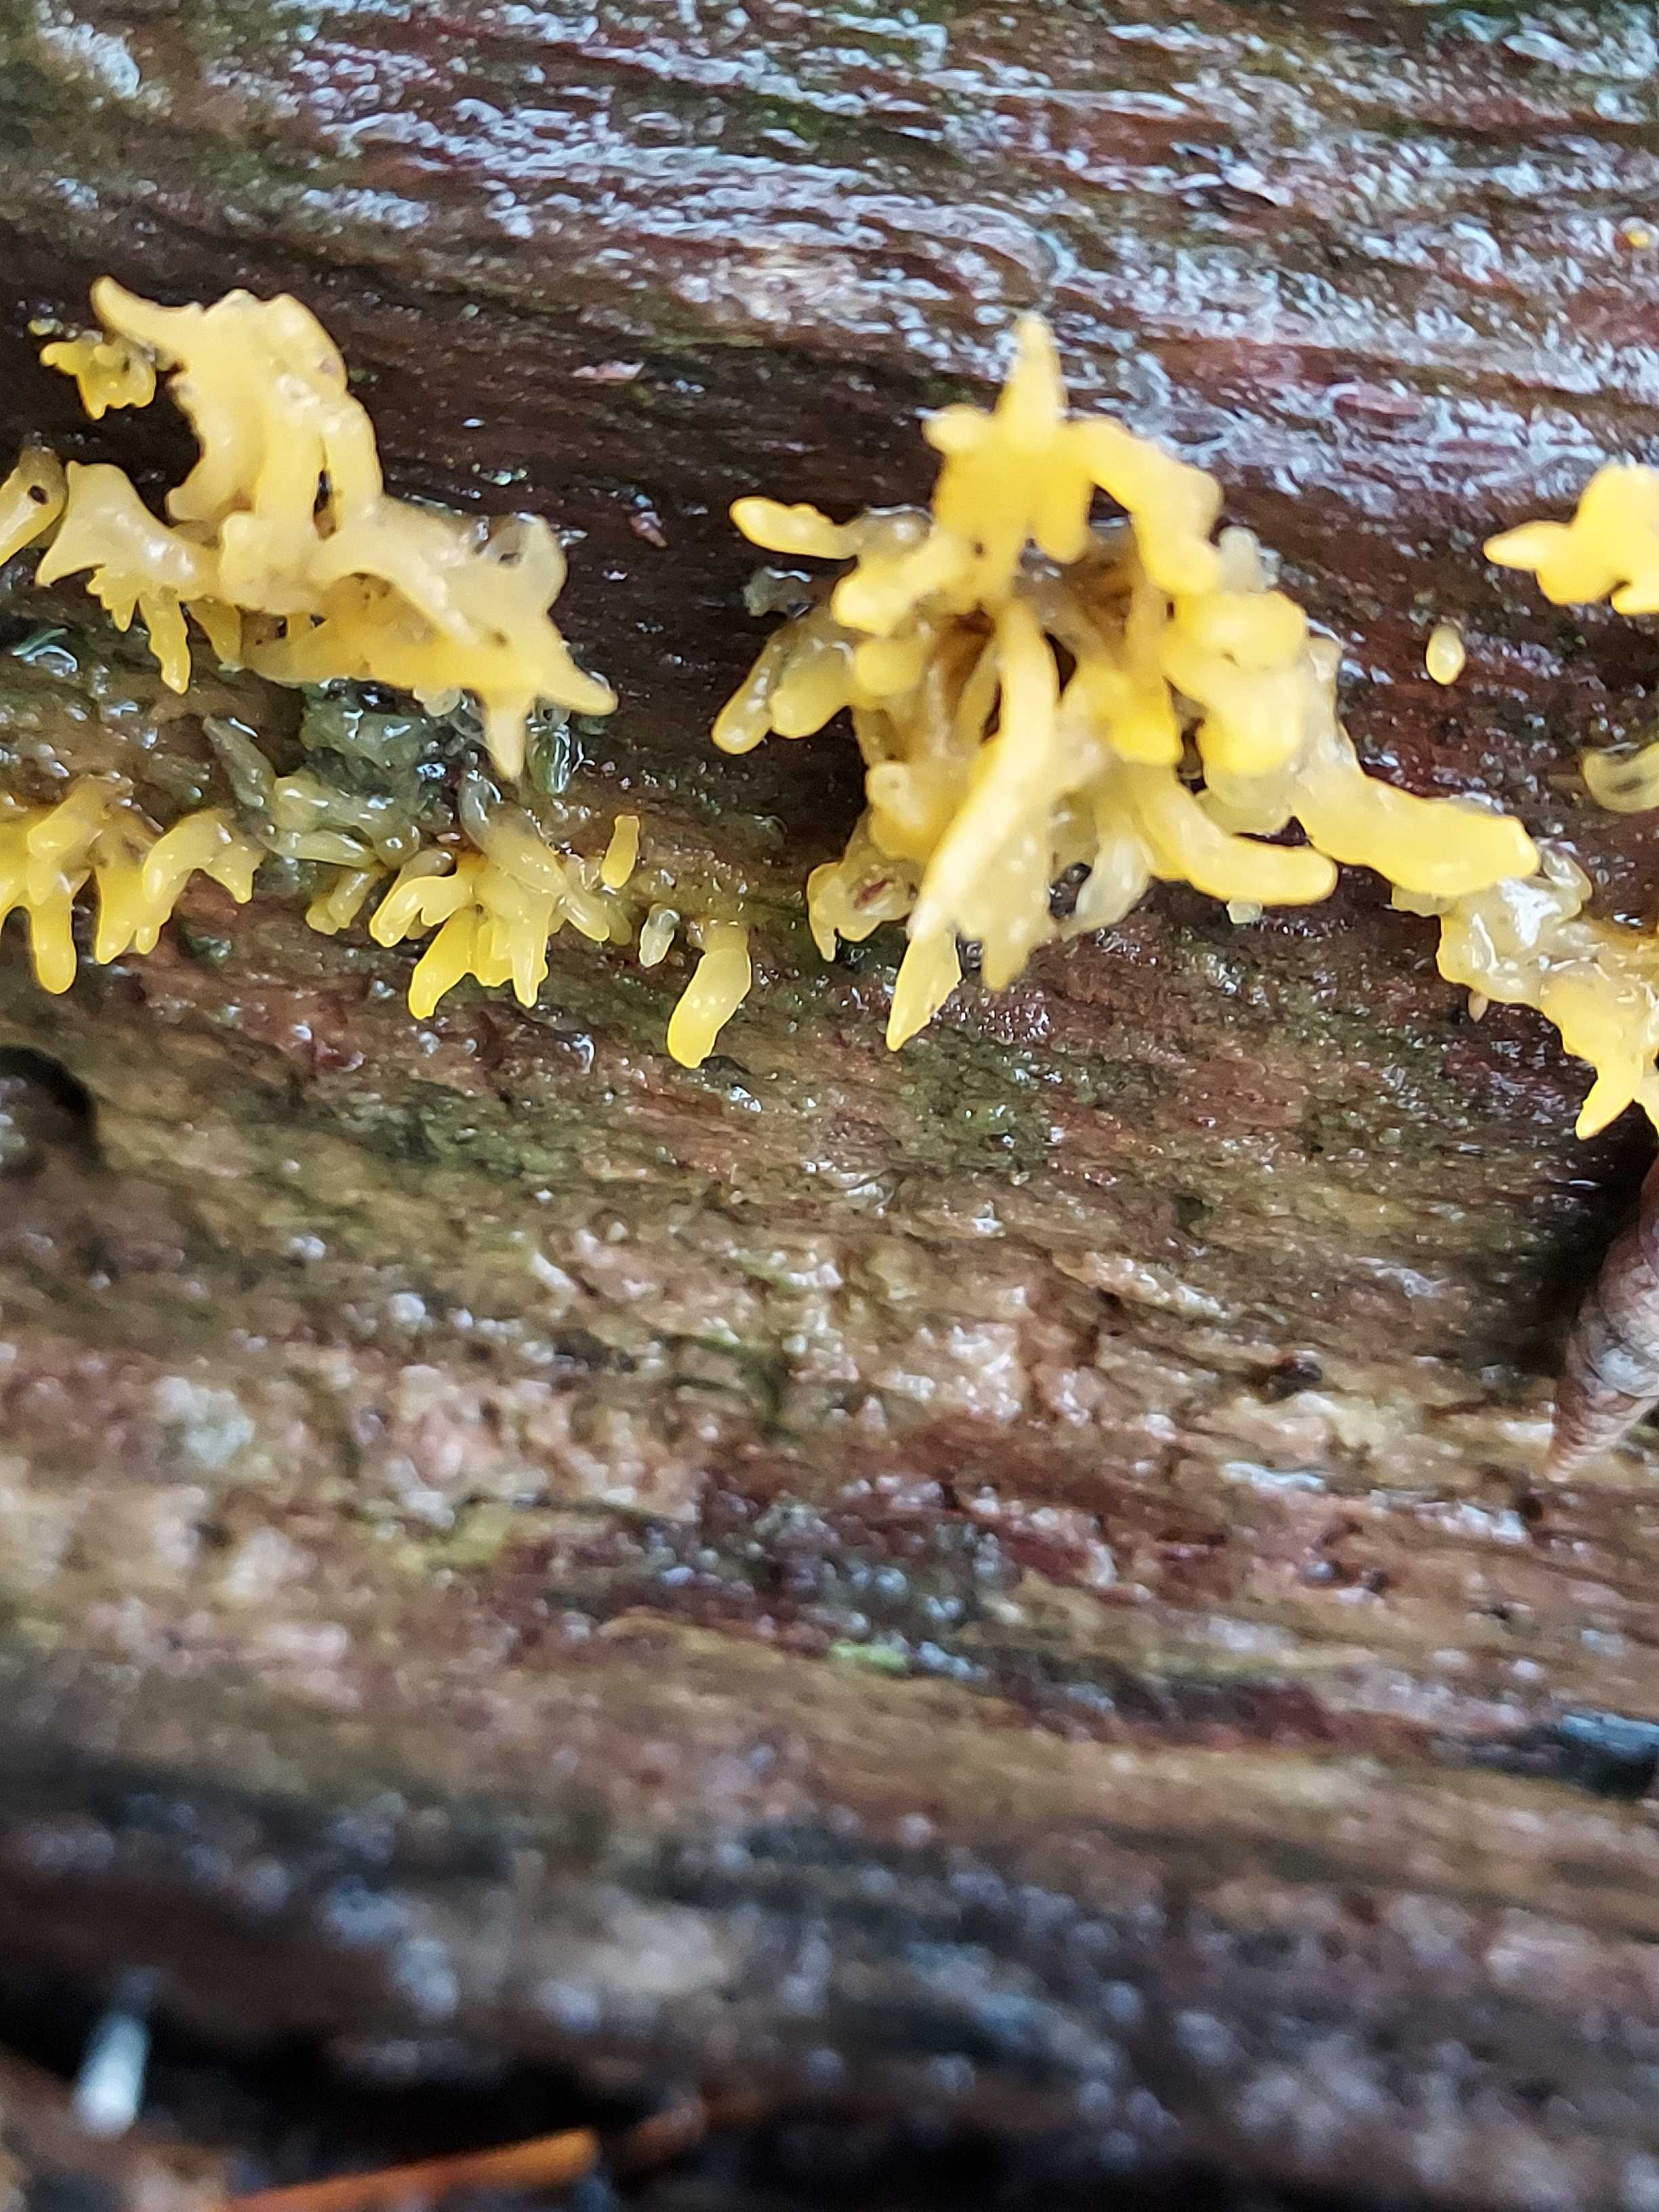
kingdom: Fungi
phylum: Basidiomycota
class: Dacrymycetes
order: Dacrymycetales
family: Dacrymycetaceae
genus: Calocera
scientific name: Calocera cornea
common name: liden guldgaffel
